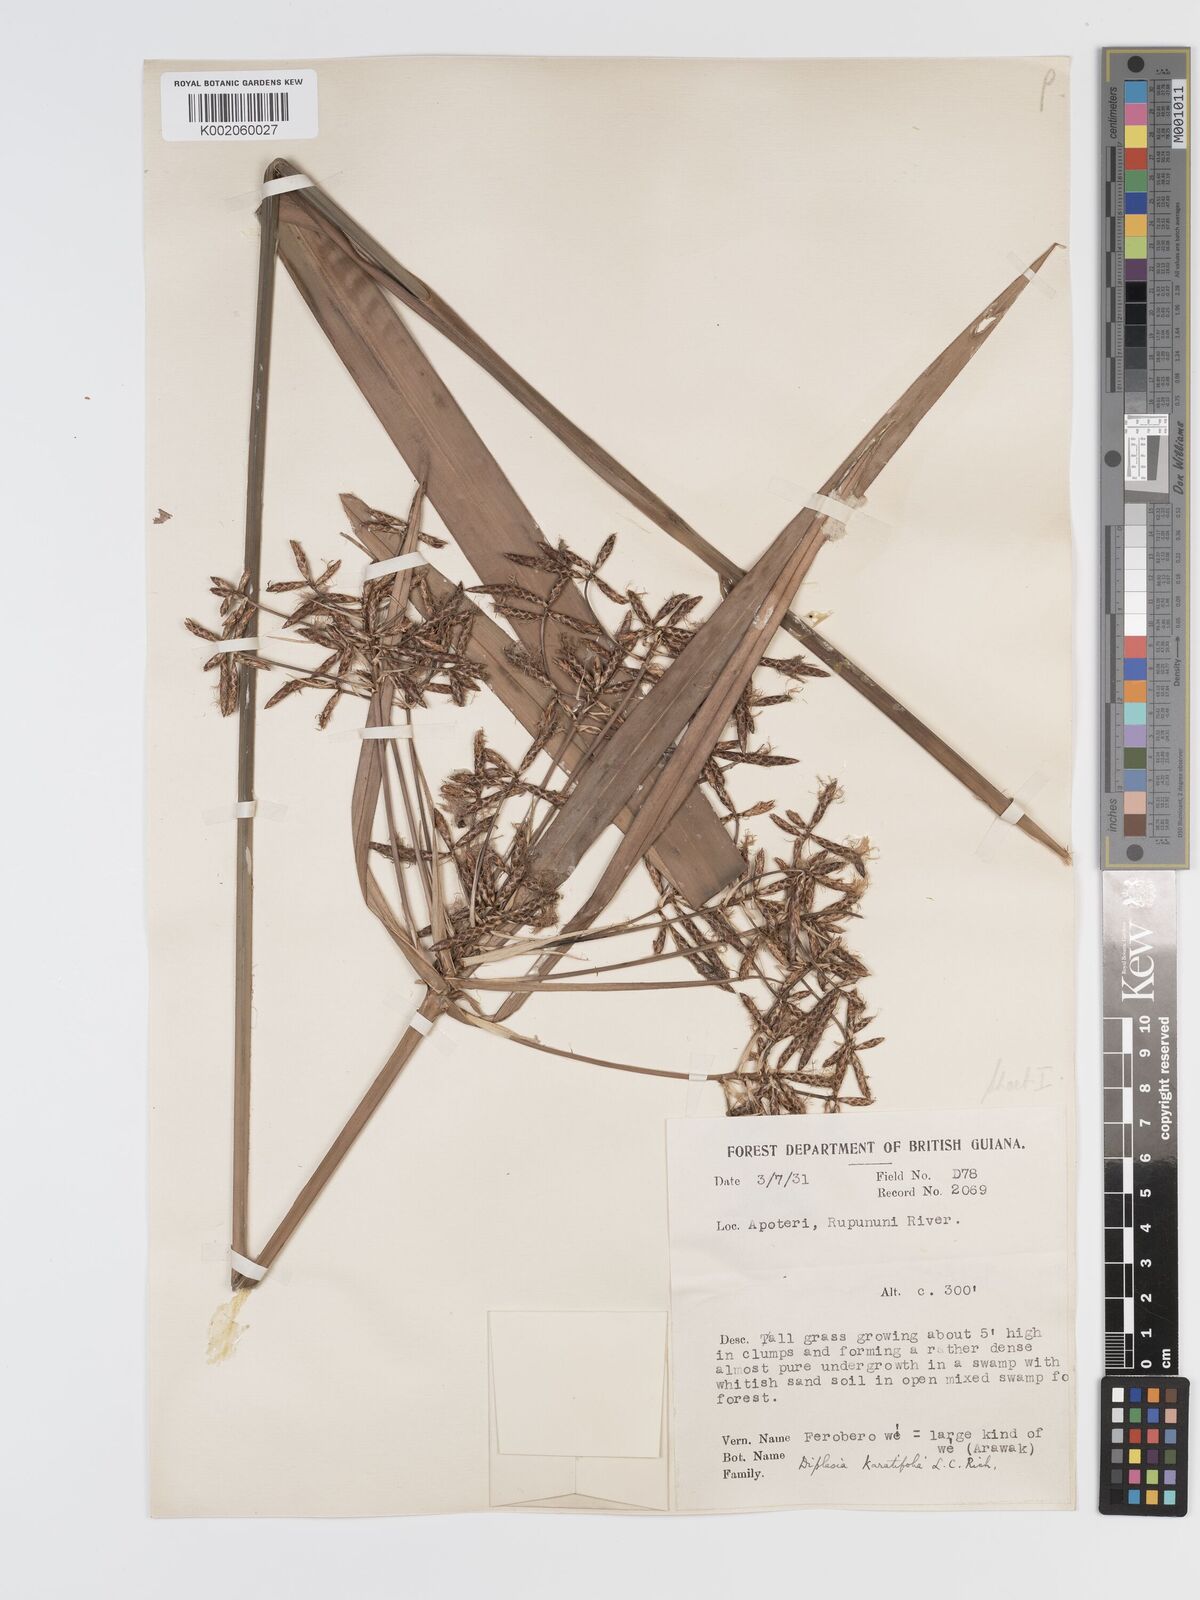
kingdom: Plantae
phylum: Tracheophyta
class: Liliopsida
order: Poales
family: Cyperaceae
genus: Diplasia
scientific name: Diplasia karatifolia
